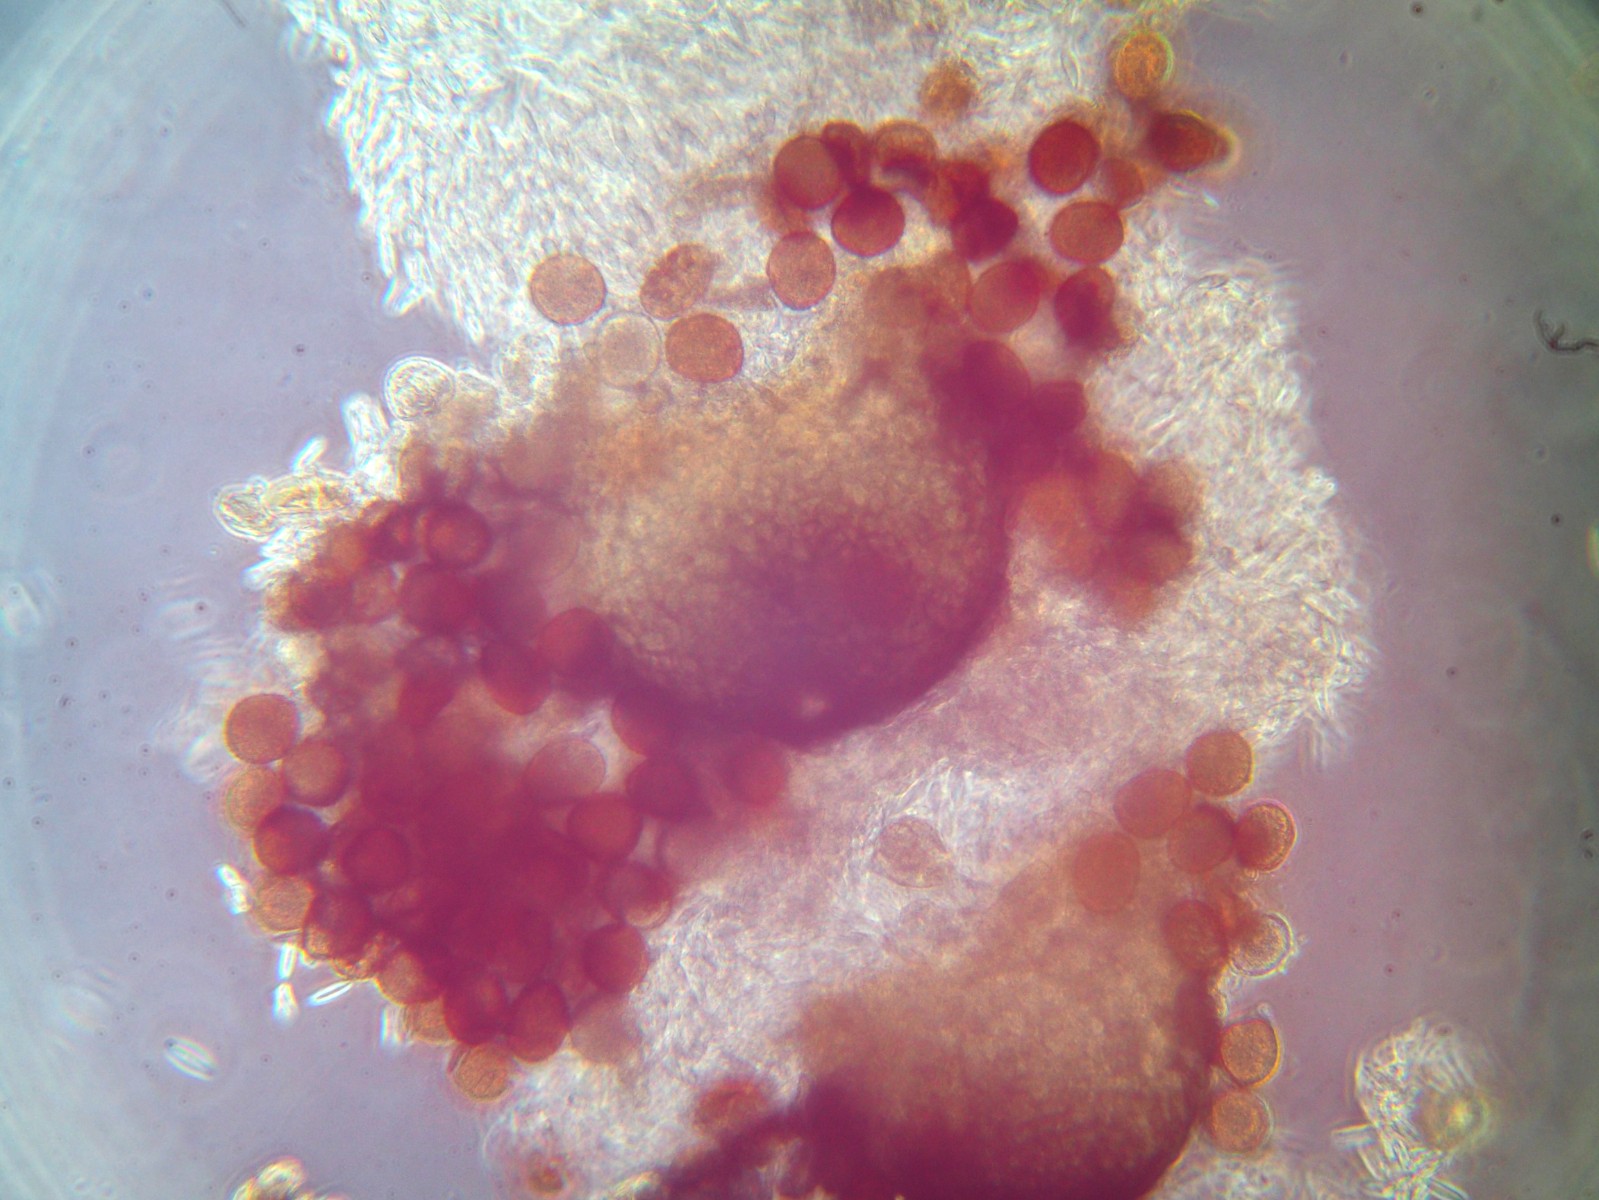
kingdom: Fungi
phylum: Ascomycota
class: Dothideomycetes
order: Pleosporales
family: Phaeosphaeriaceae
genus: Sphaerellopsis
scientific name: Sphaerellopsis filum
